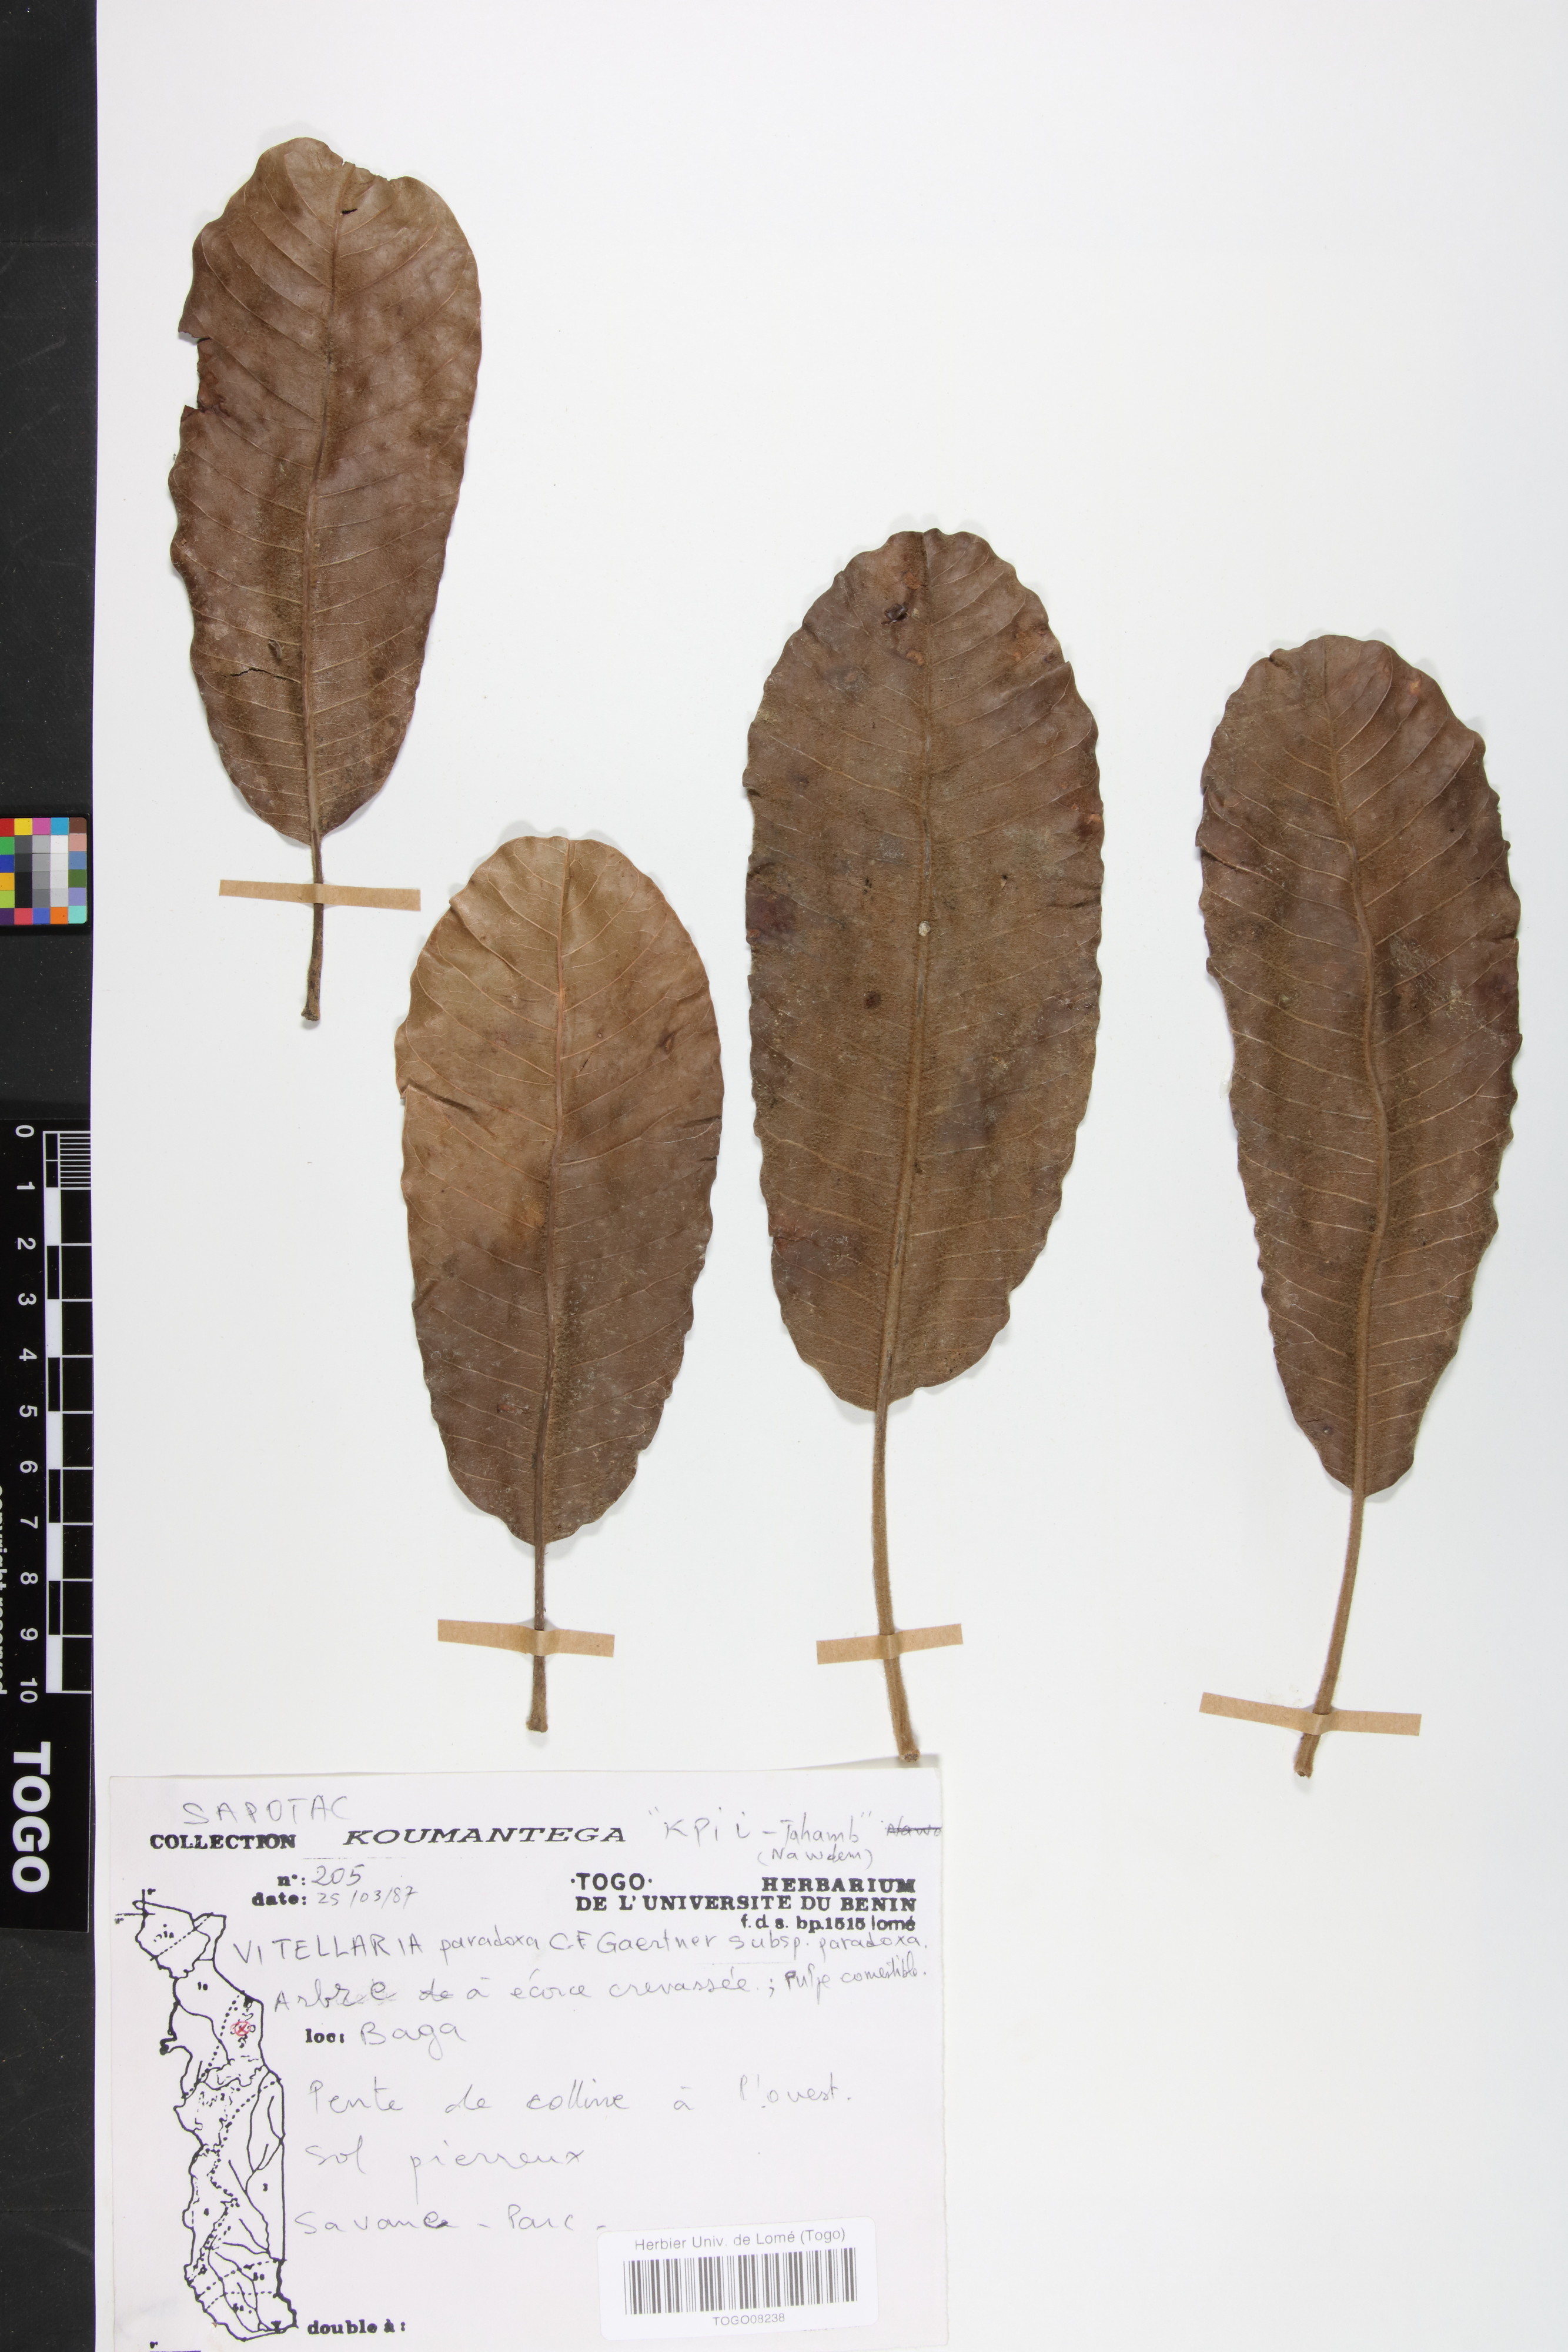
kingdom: Plantae
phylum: Tracheophyta
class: Magnoliopsida
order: Ericales
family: Sapotaceae
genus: Vitellaria
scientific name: Vitellaria paradoxa
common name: Shea butter tree
